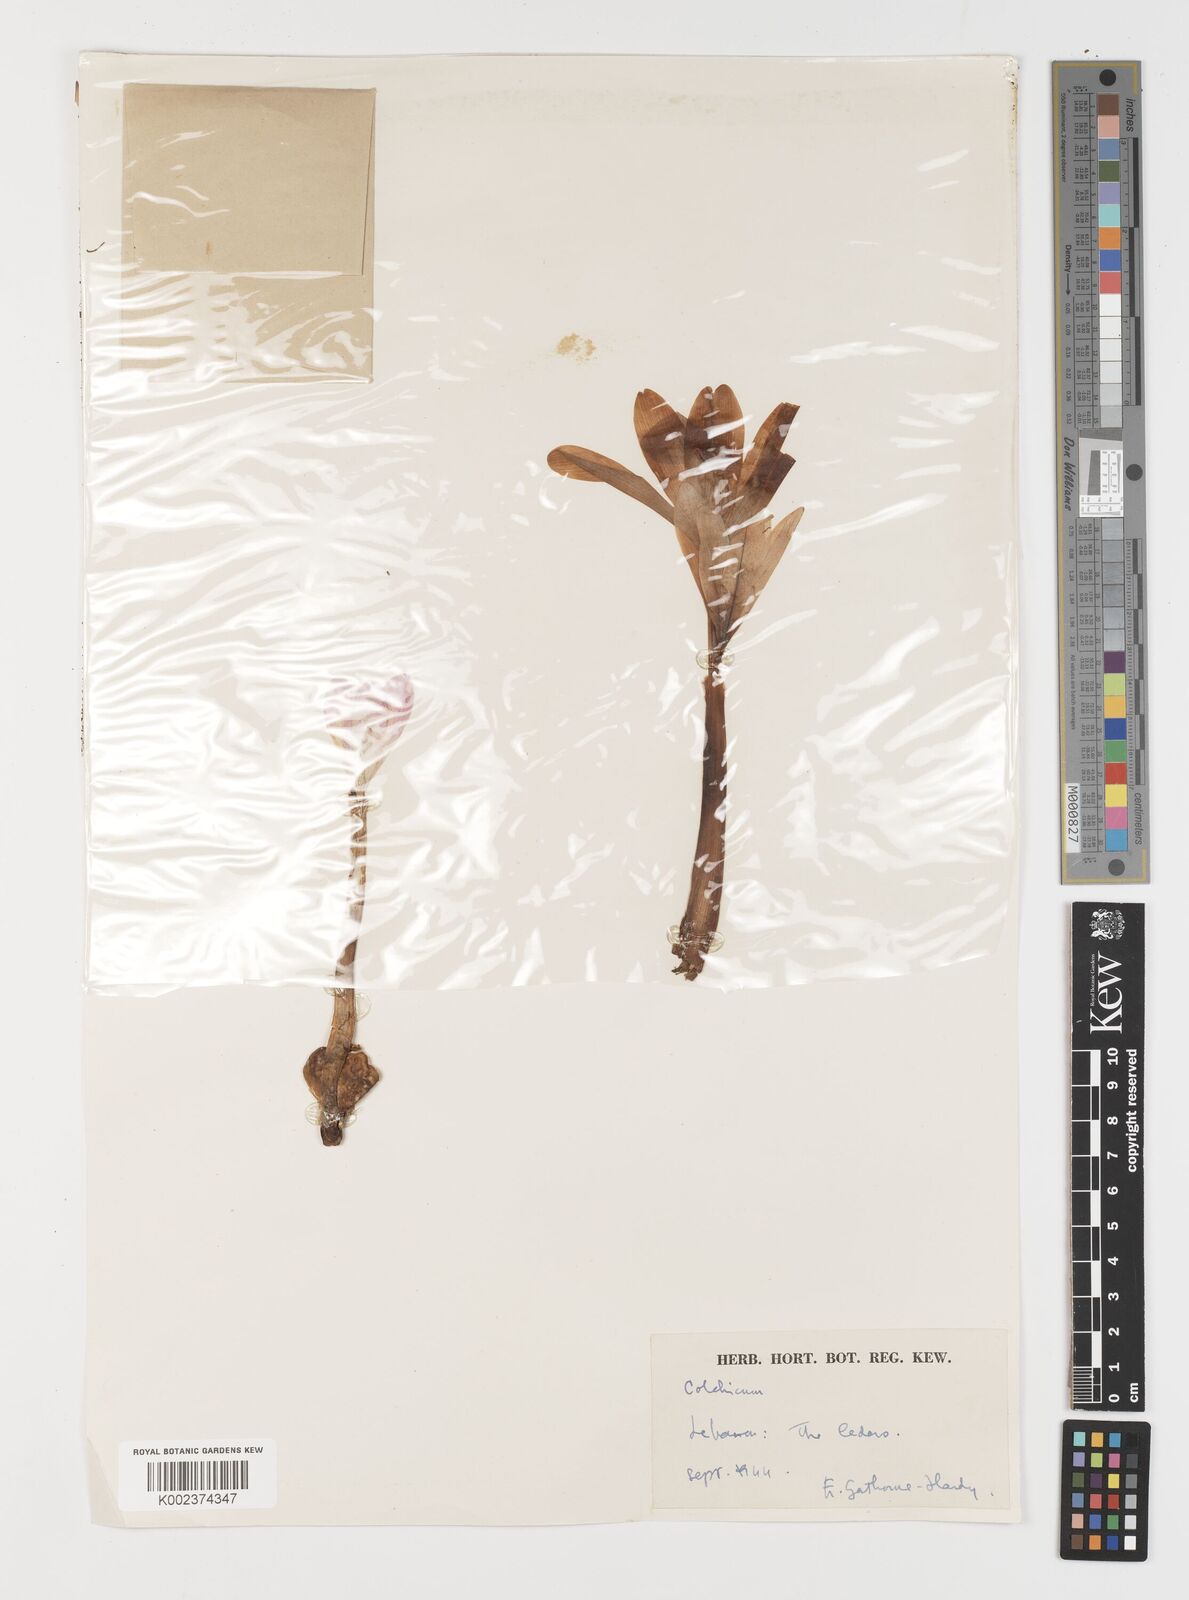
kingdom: Plantae
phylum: Tracheophyta
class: Liliopsida
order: Liliales
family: Colchicaceae
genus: Colchicum
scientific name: Colchicum
